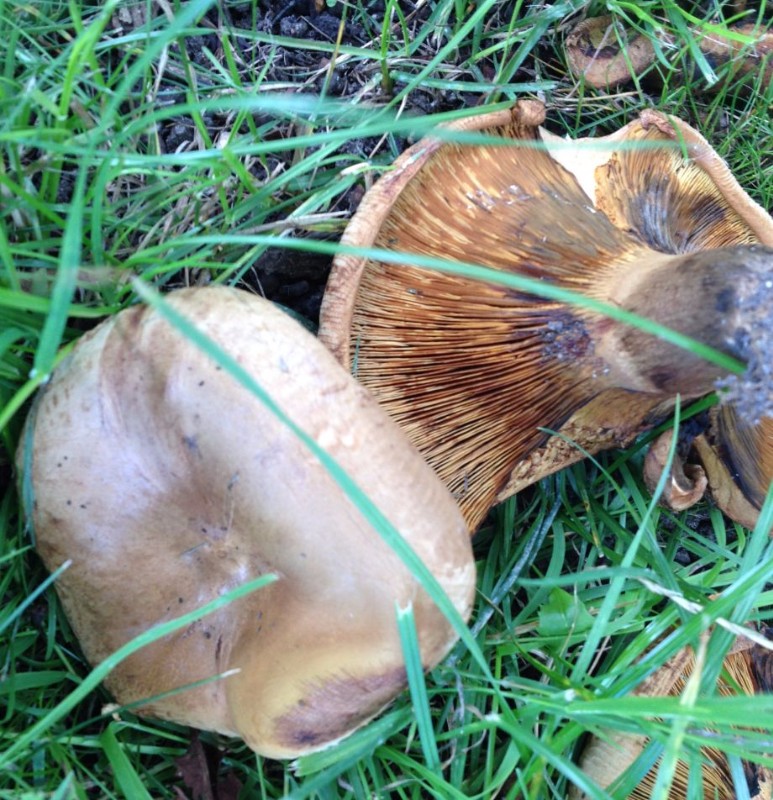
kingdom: Fungi
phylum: Basidiomycota
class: Agaricomycetes
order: Boletales
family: Paxillaceae
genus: Paxillus
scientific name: Paxillus obscurisporus
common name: mahognisporet netbladhat
